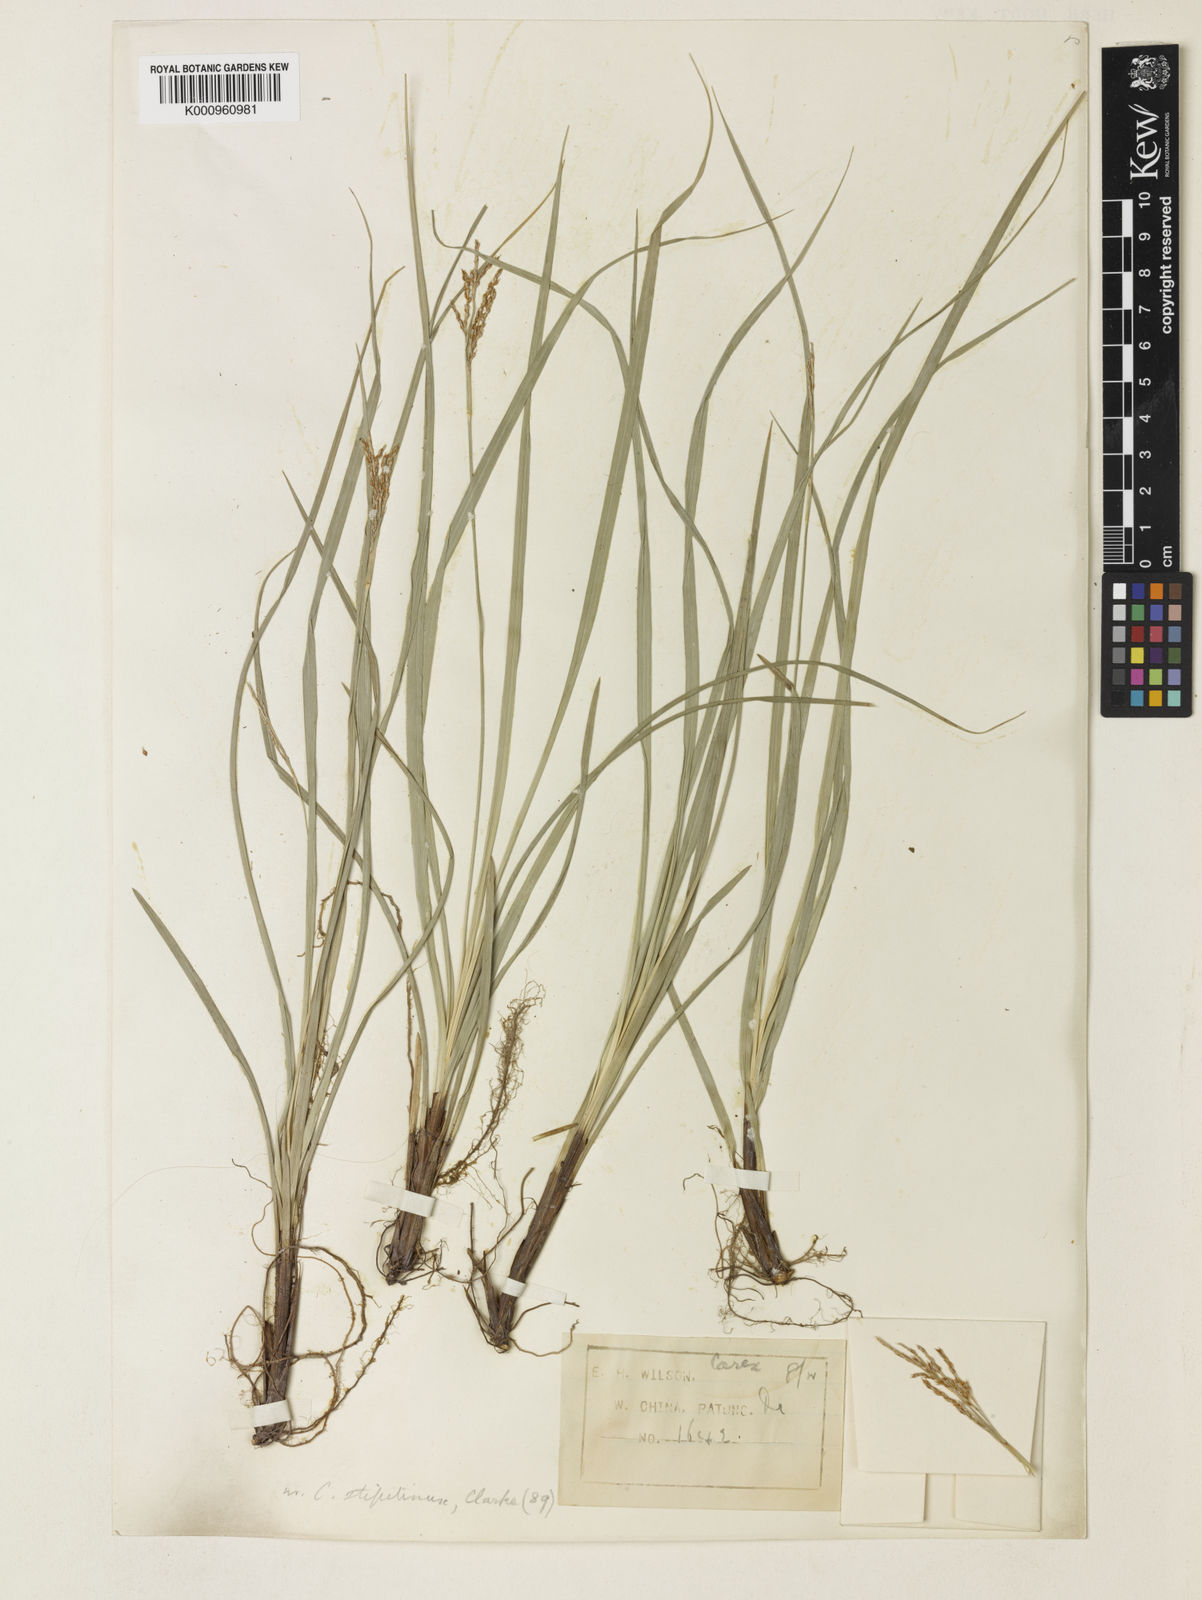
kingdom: Plantae
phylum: Tracheophyta
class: Liliopsida
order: Poales
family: Cyperaceae
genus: Carex
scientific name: Carex brunnea
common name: Greater brown sedge
